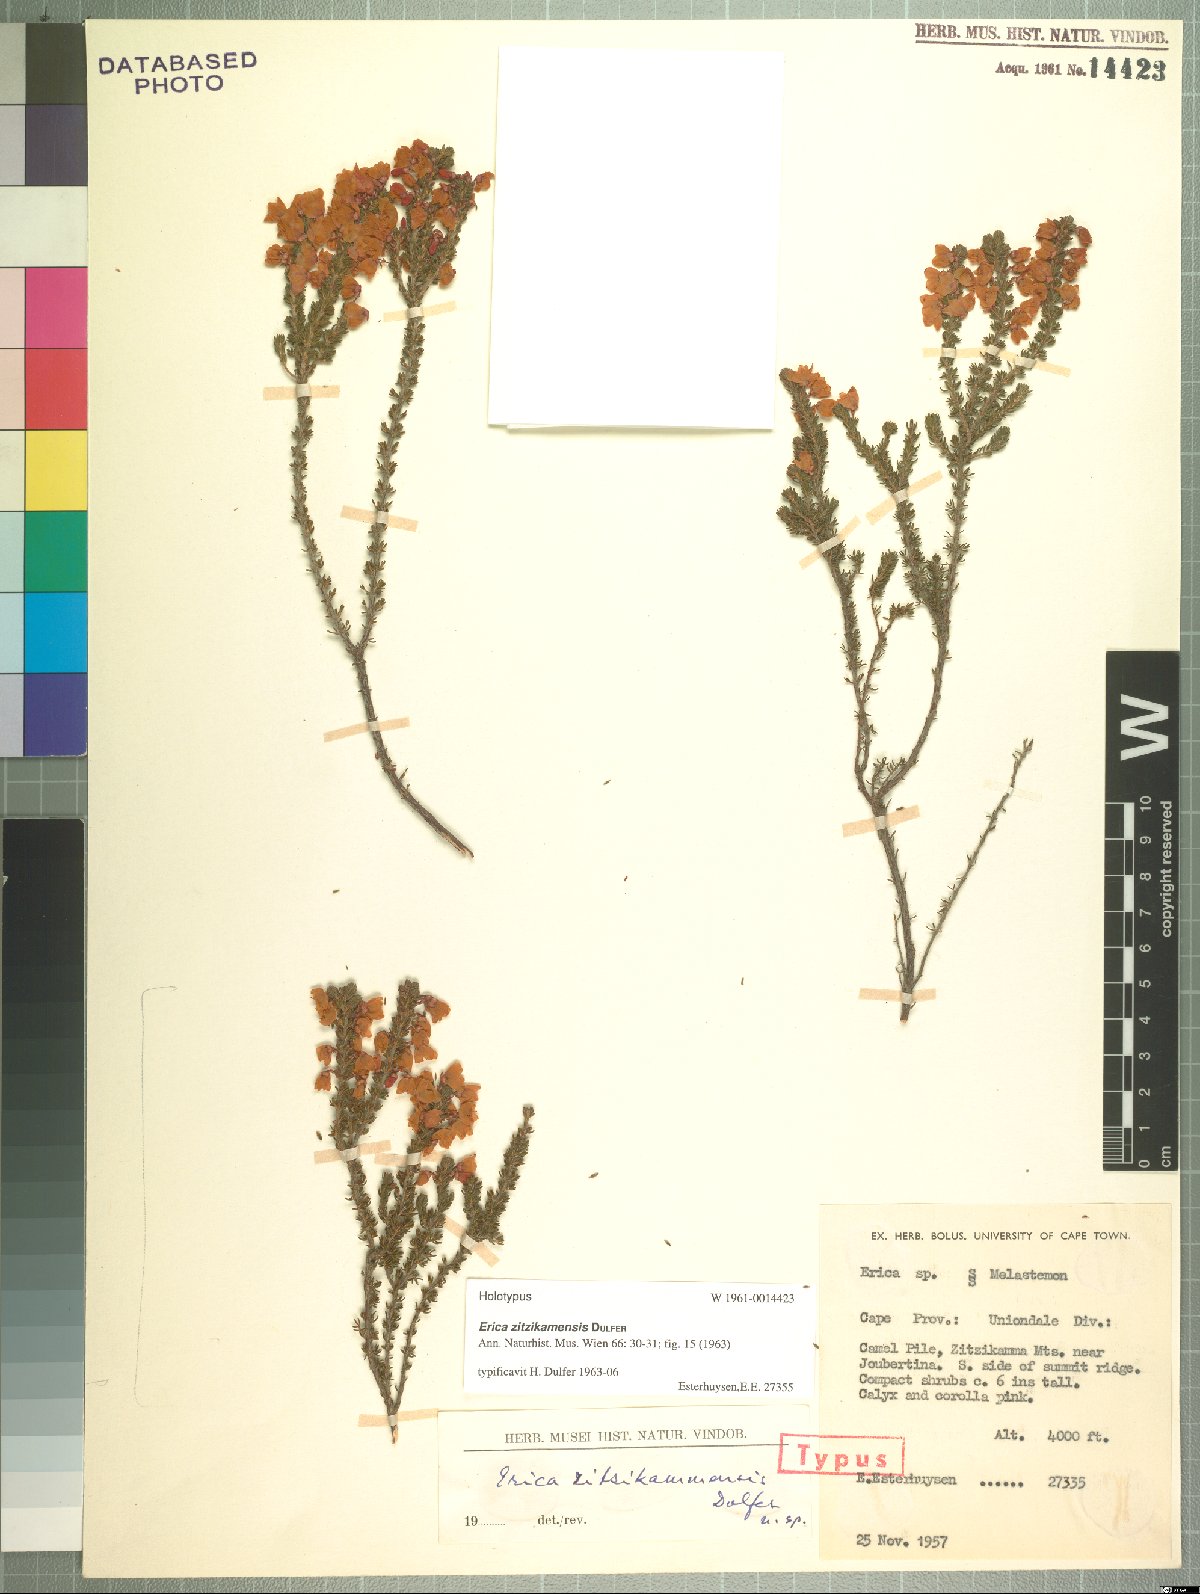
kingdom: Plantae
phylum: Tracheophyta
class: Magnoliopsida
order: Ericales
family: Ericaceae
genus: Erica
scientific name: Erica zitzikammensis
